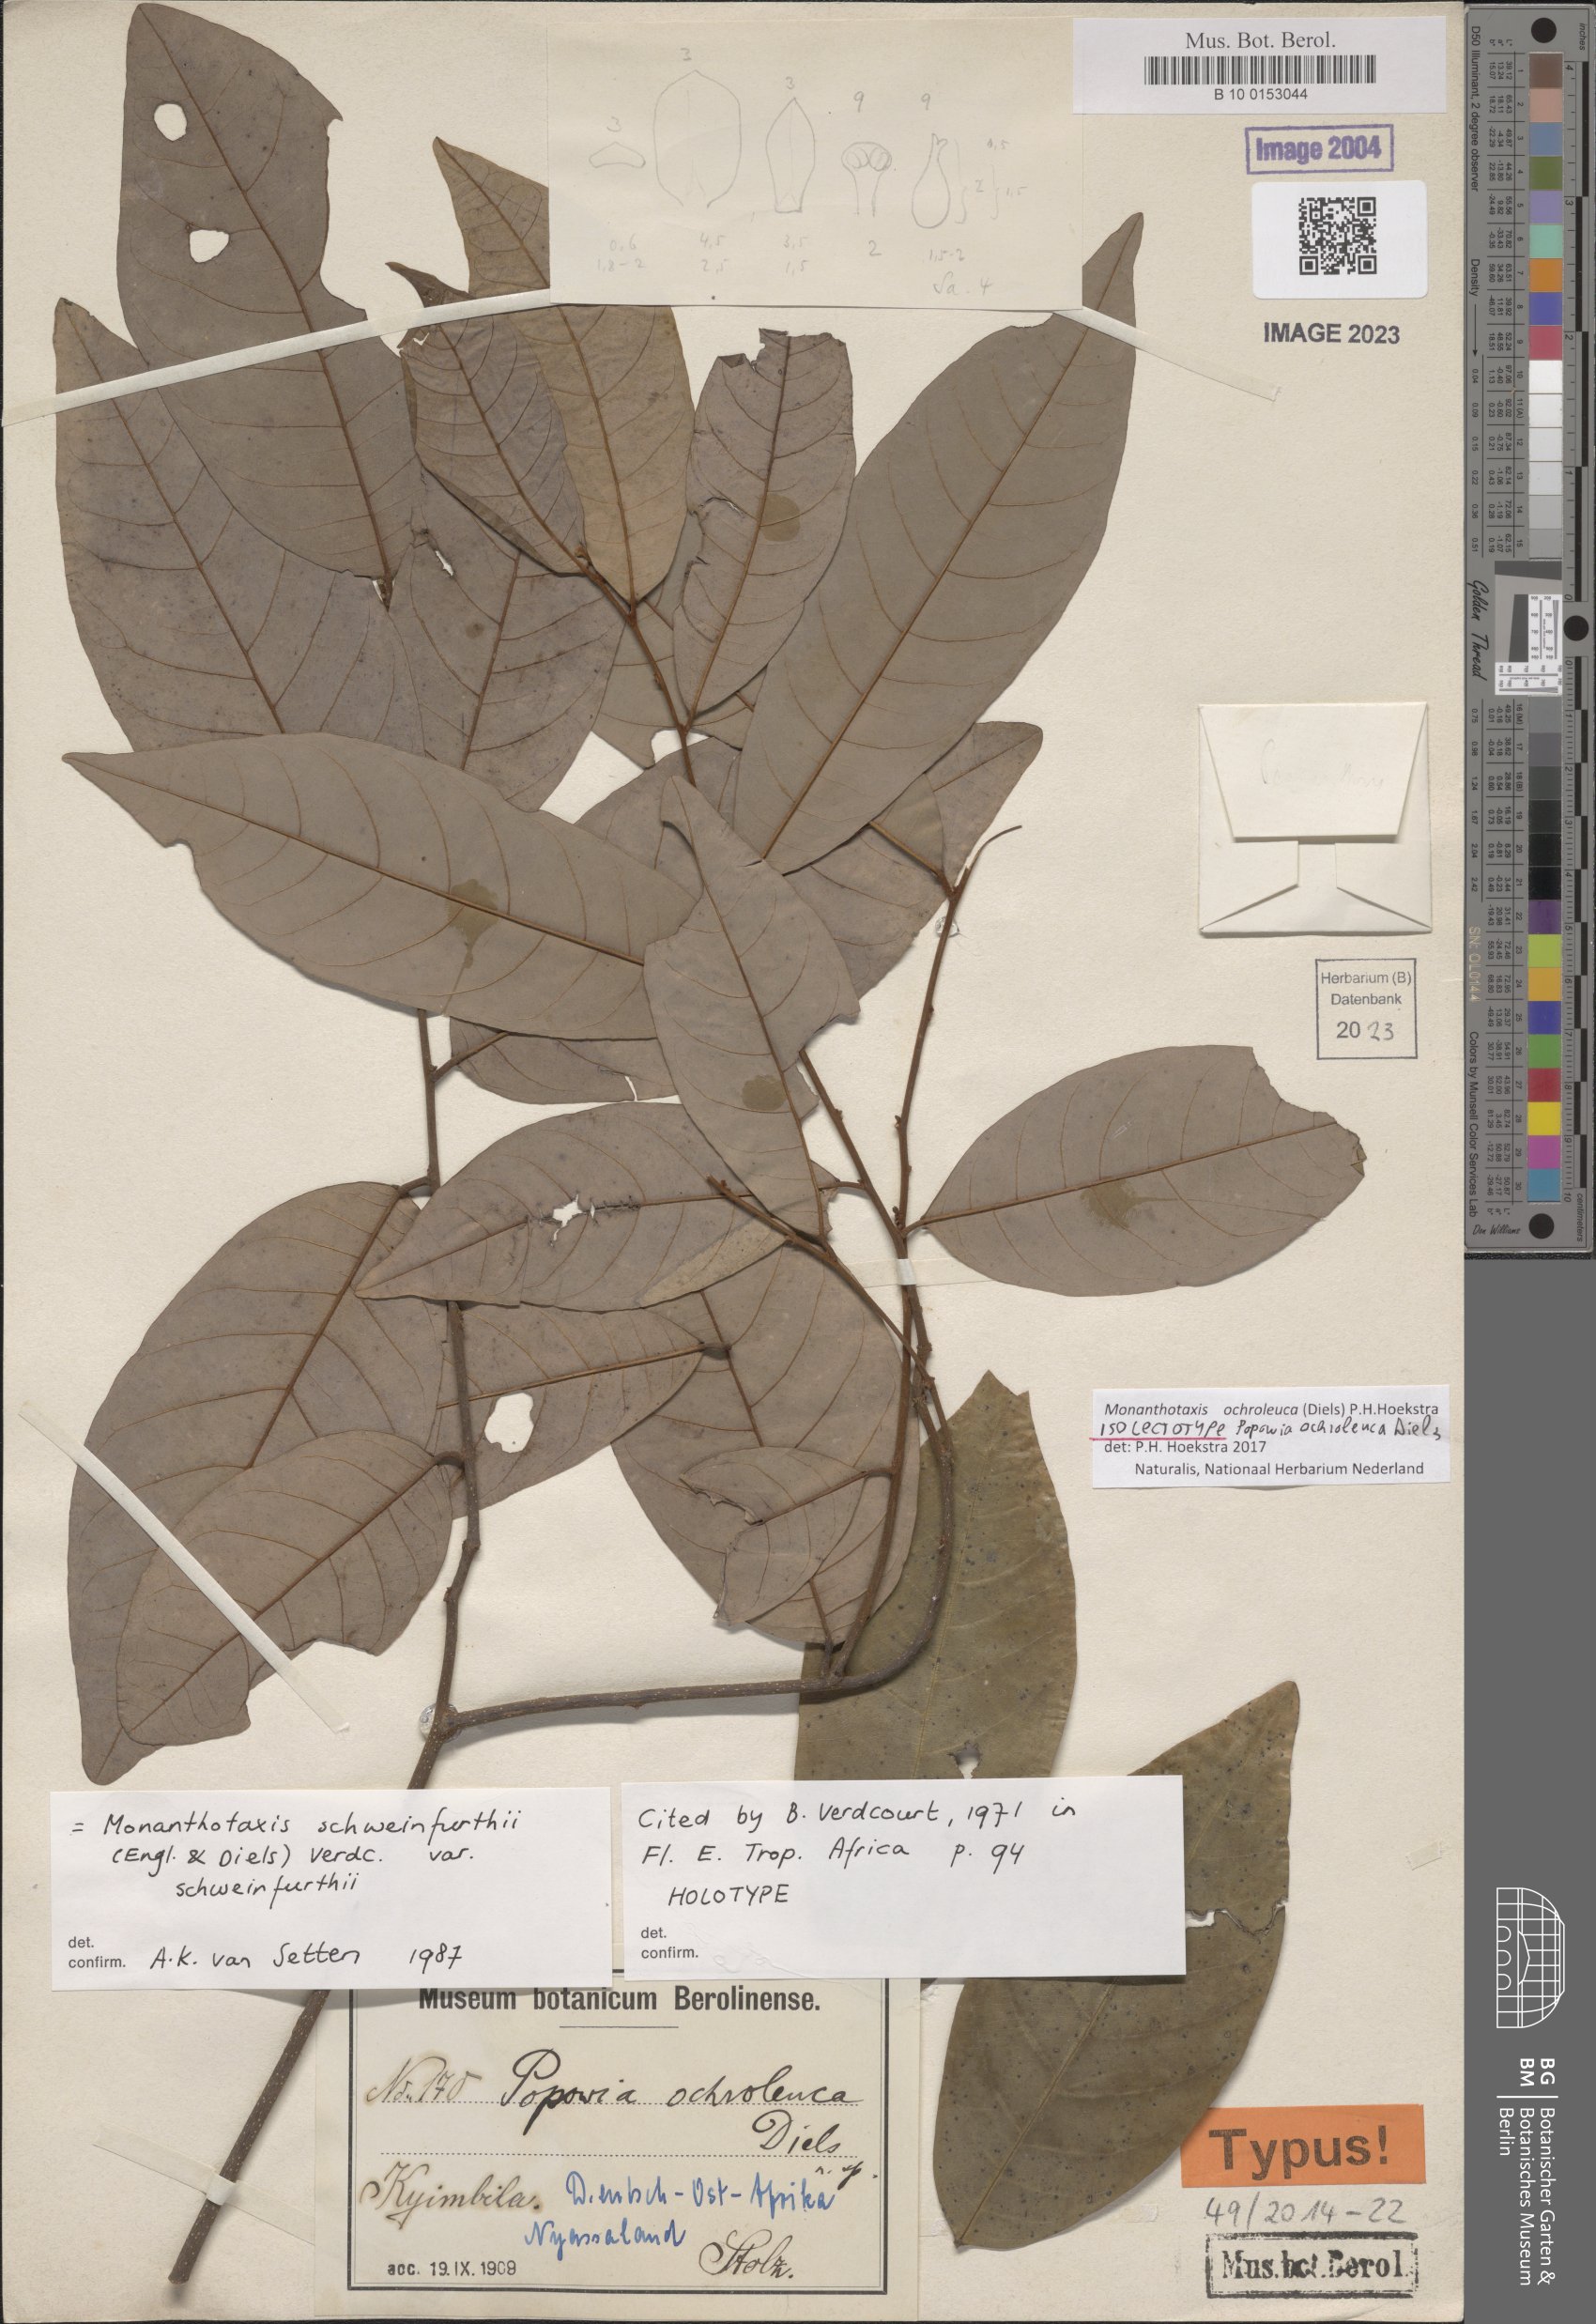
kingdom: Plantae
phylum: Tracheophyta
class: Magnoliopsida
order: Magnoliales
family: Annonaceae
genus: Monanthotaxis
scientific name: Monanthotaxis
